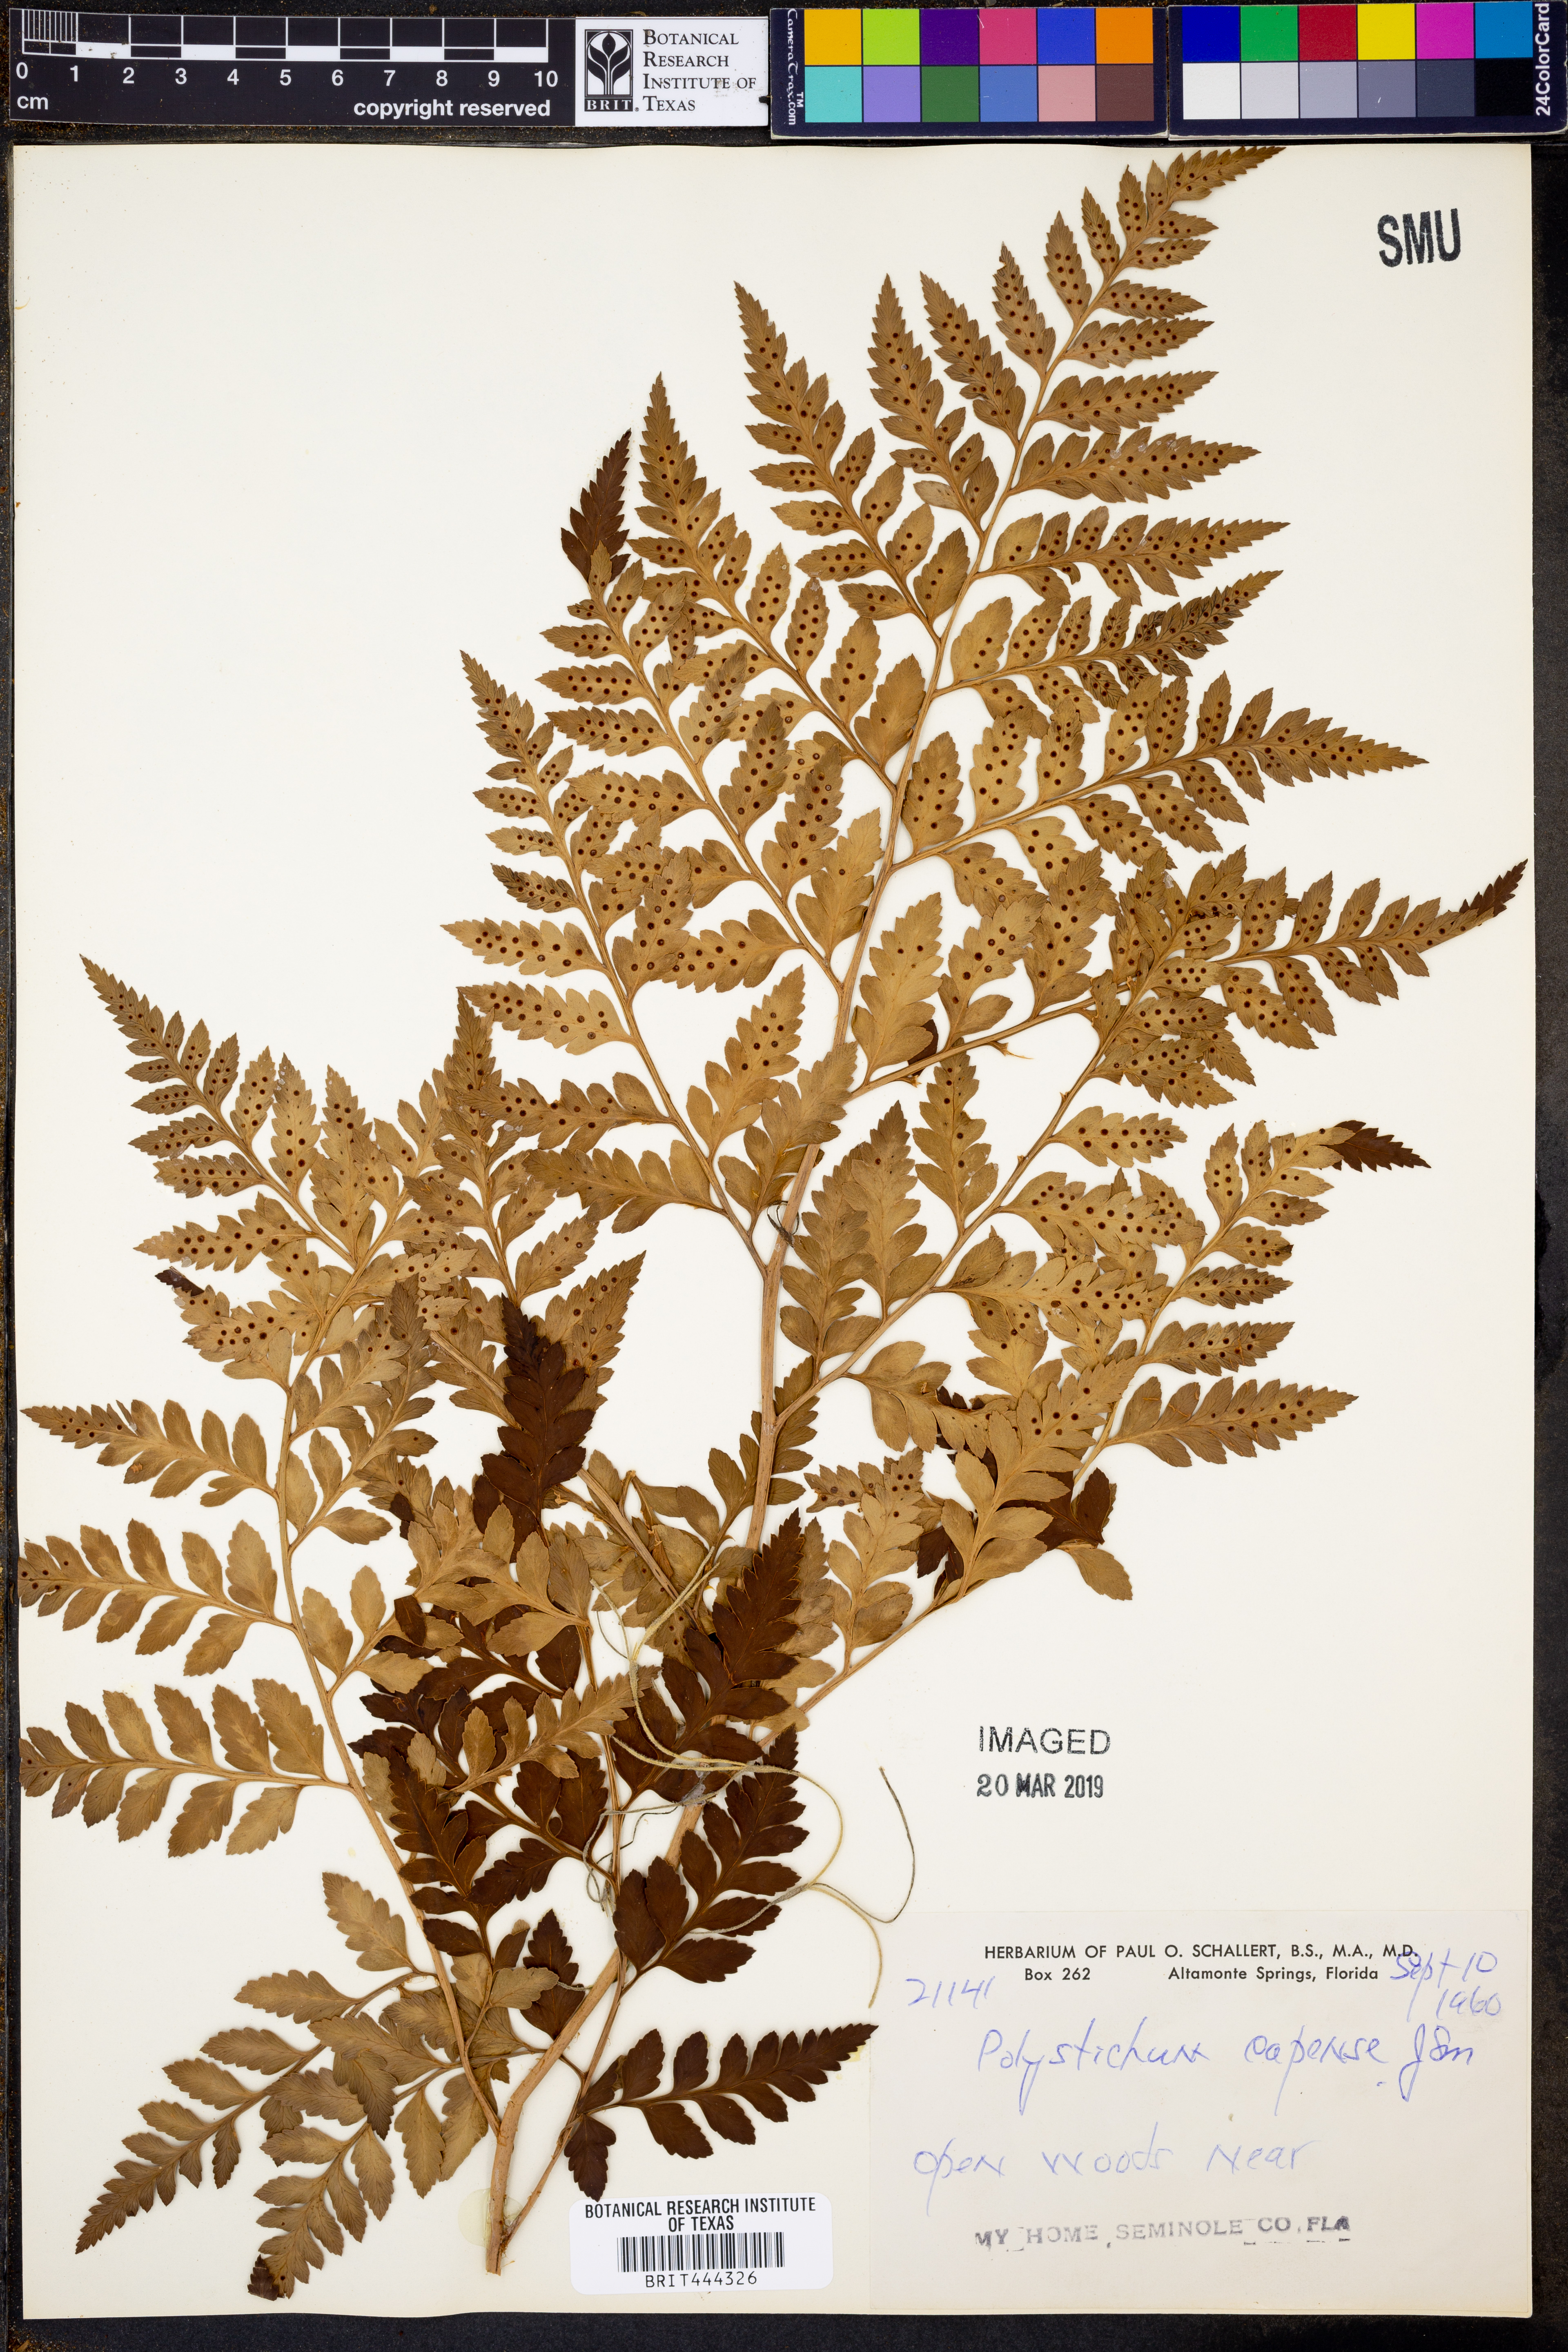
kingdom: Plantae
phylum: Tracheophyta
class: Polypodiopsida
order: Cyatheales
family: Cyatheaceae
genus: Gymnosphaera
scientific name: Gymnosphaera capensis
